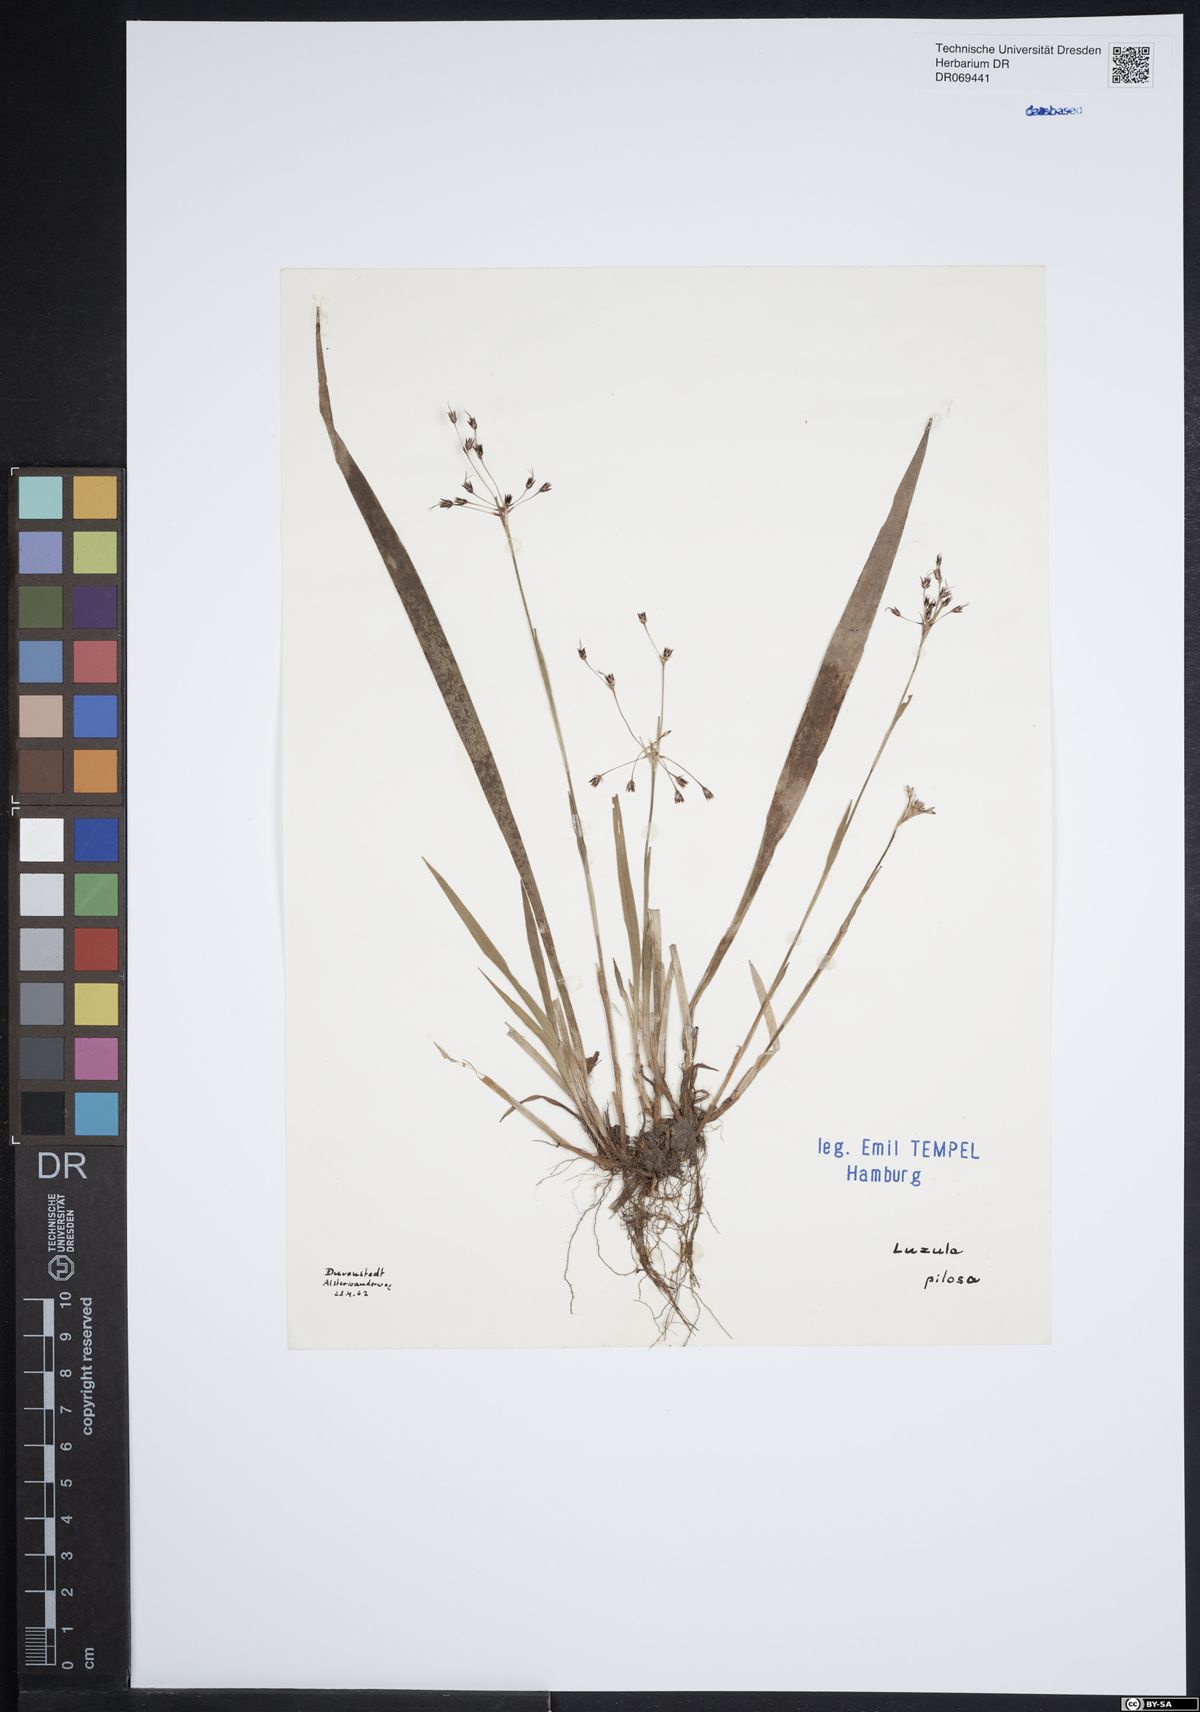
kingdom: Plantae
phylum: Tracheophyta
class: Liliopsida
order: Poales
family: Juncaceae
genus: Luzula
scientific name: Luzula pilosa
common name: Hairy wood-rush
